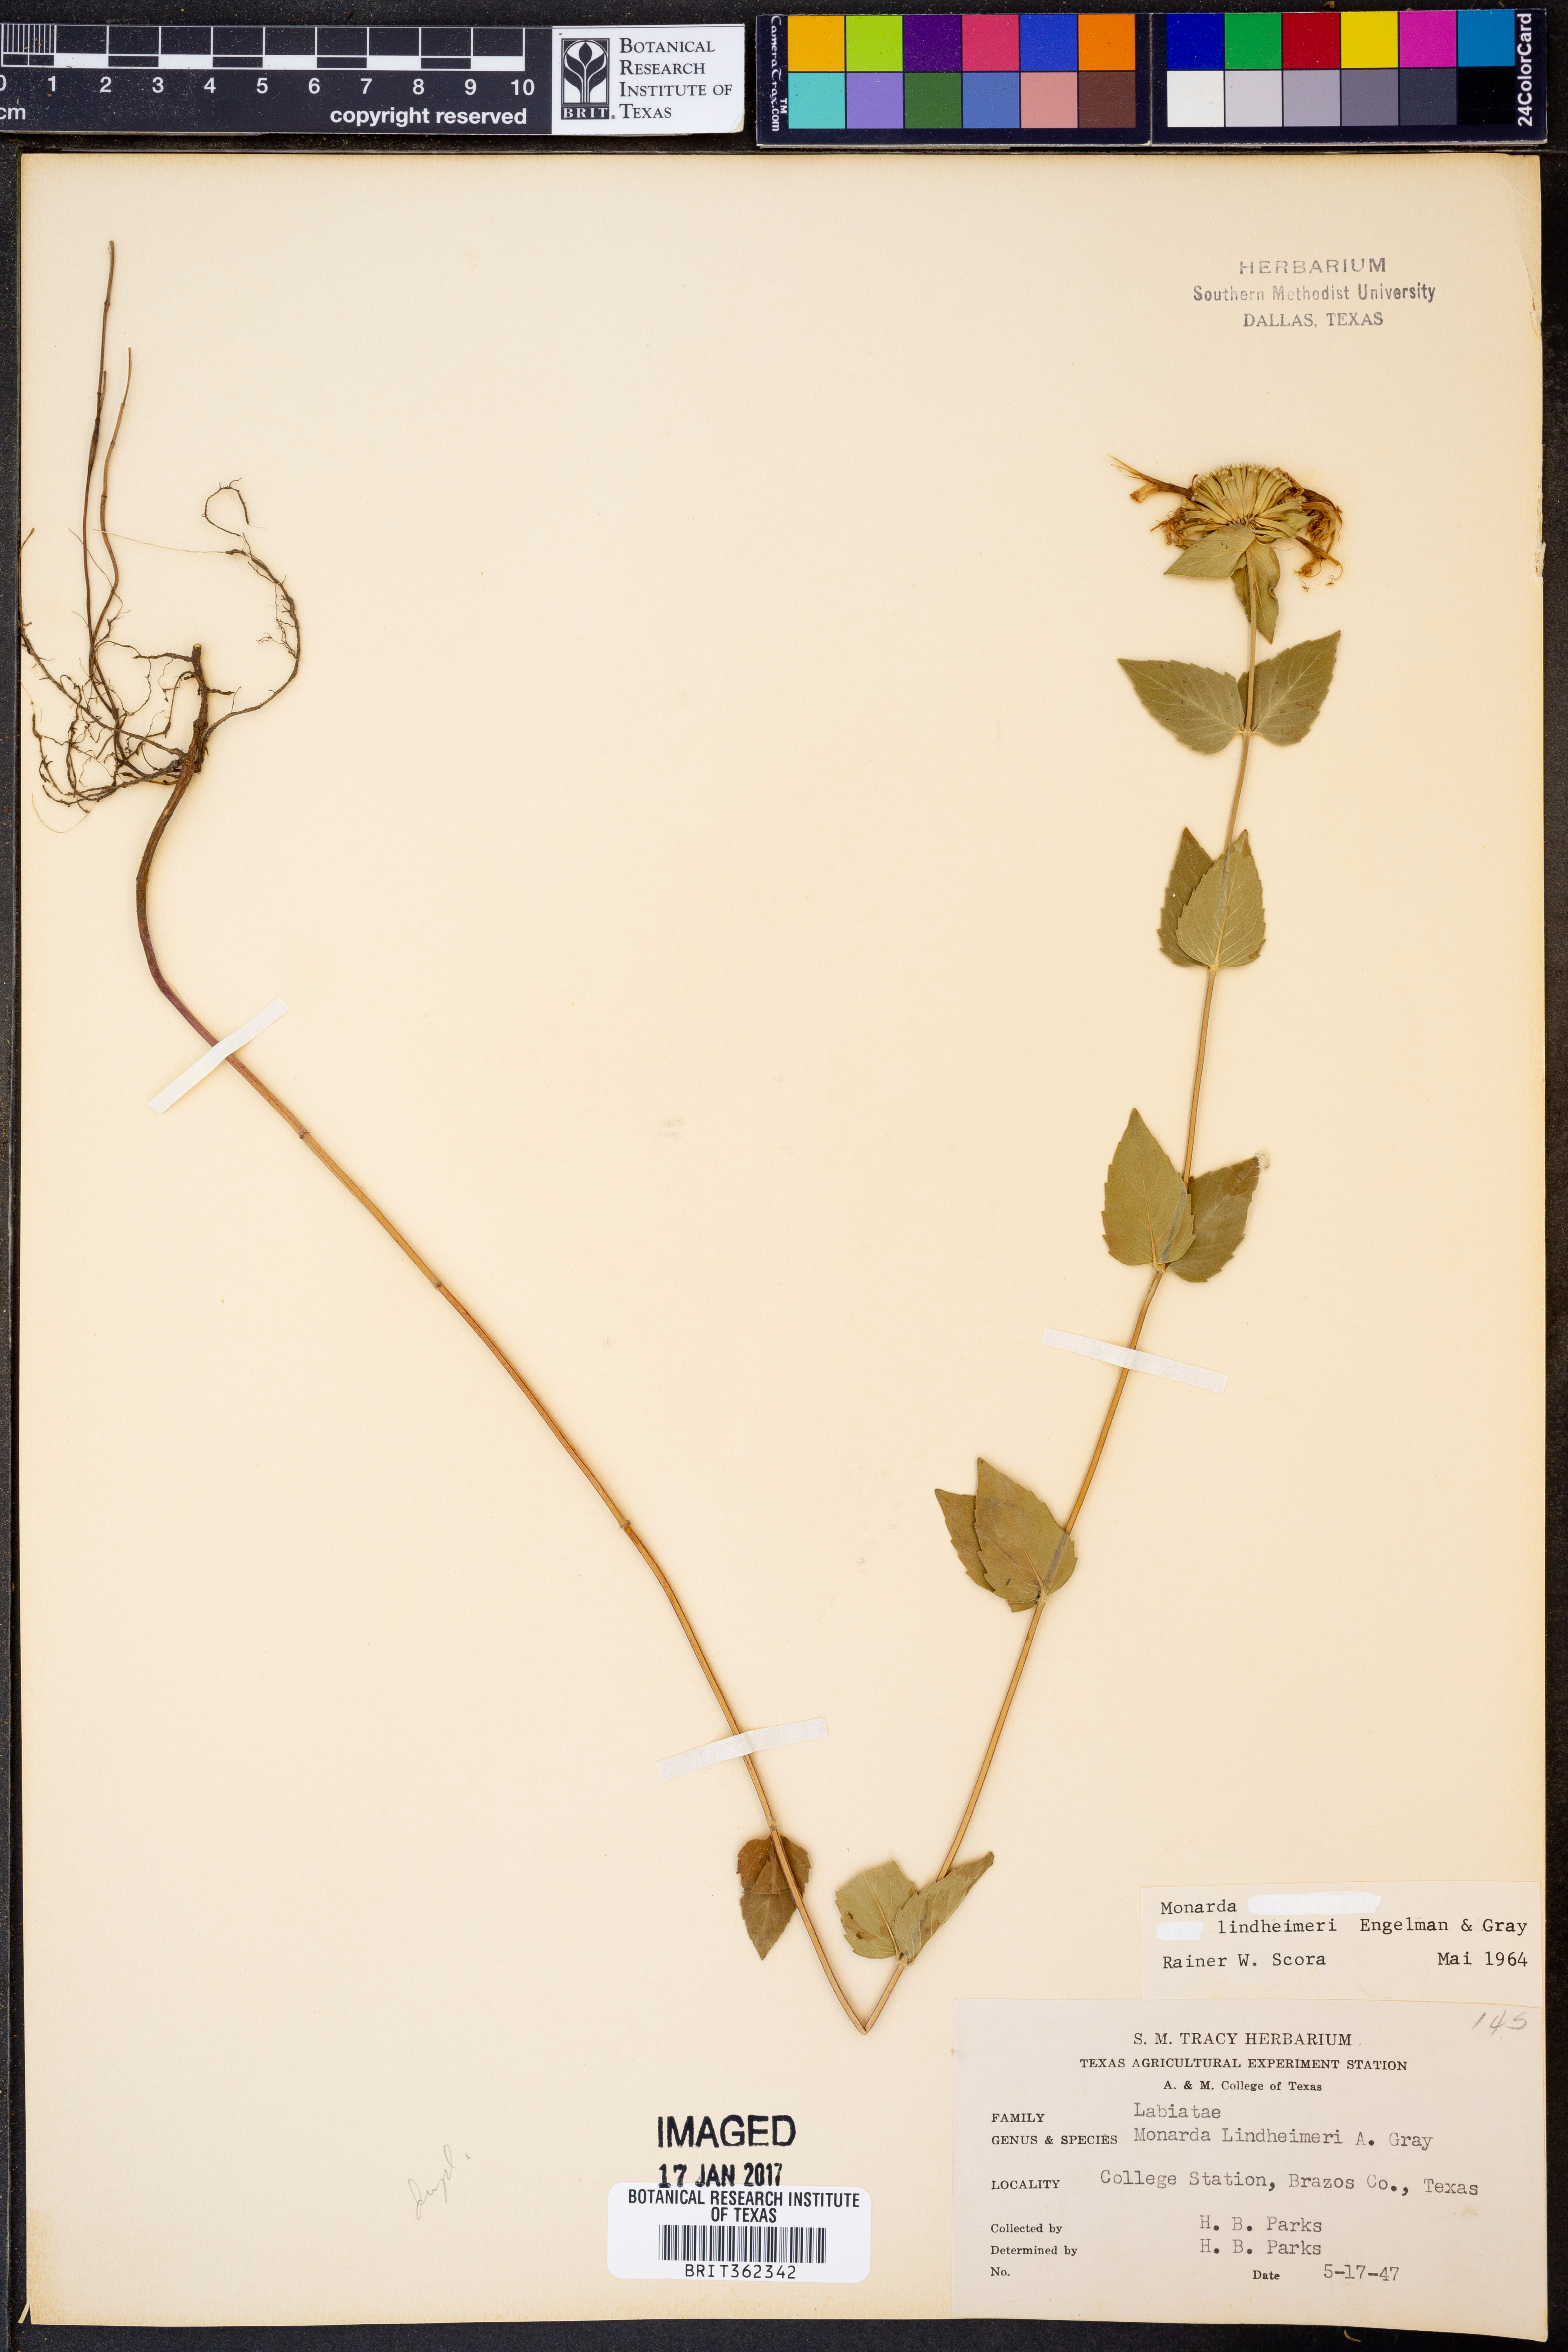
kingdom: Plantae
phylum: Tracheophyta
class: Magnoliopsida
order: Lamiales
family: Lamiaceae
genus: Monarda
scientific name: Monarda lindheimeri
